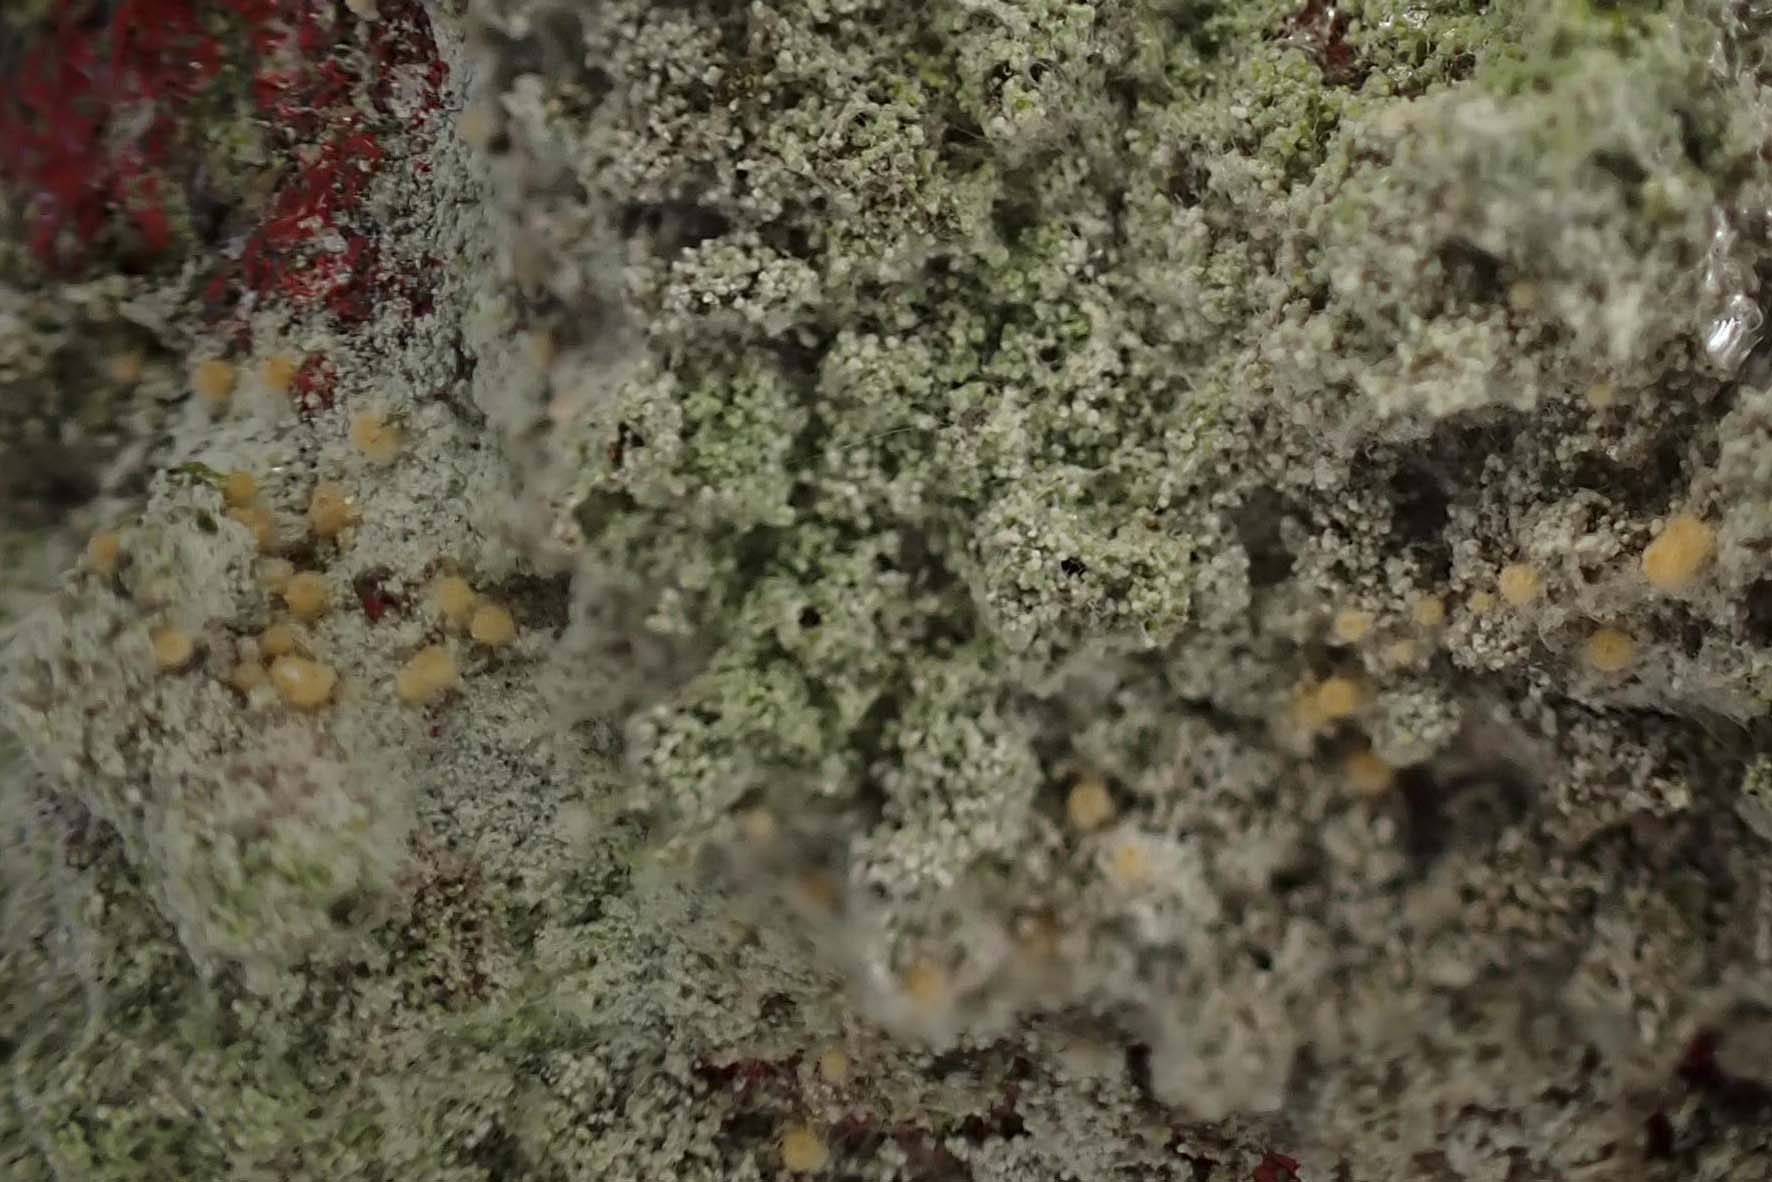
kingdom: Fungi
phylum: Ascomycota
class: Sordariomycetes
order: Hypocreales
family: Bionectriaceae
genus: Paranectria
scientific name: Paranectria oropensis
